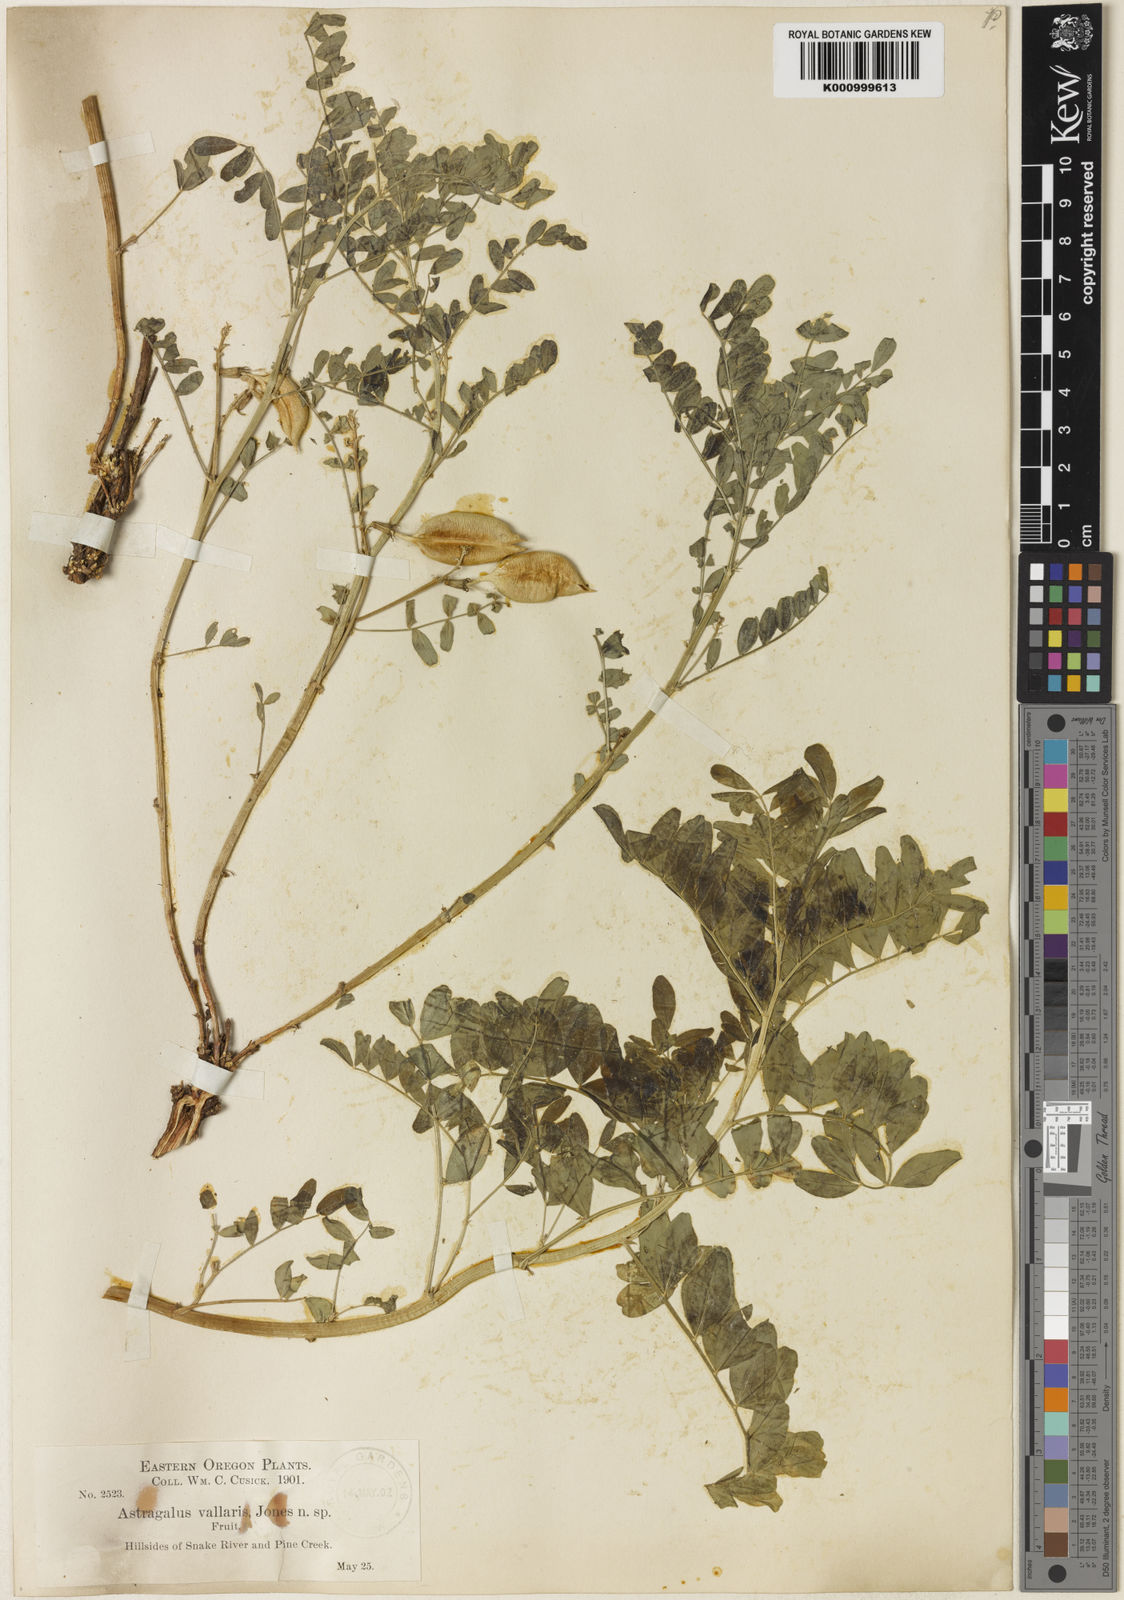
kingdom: Plantae
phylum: Tracheophyta
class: Magnoliopsida
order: Fabales
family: Fabaceae
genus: Astragalus
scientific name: Astragalus vallaris
